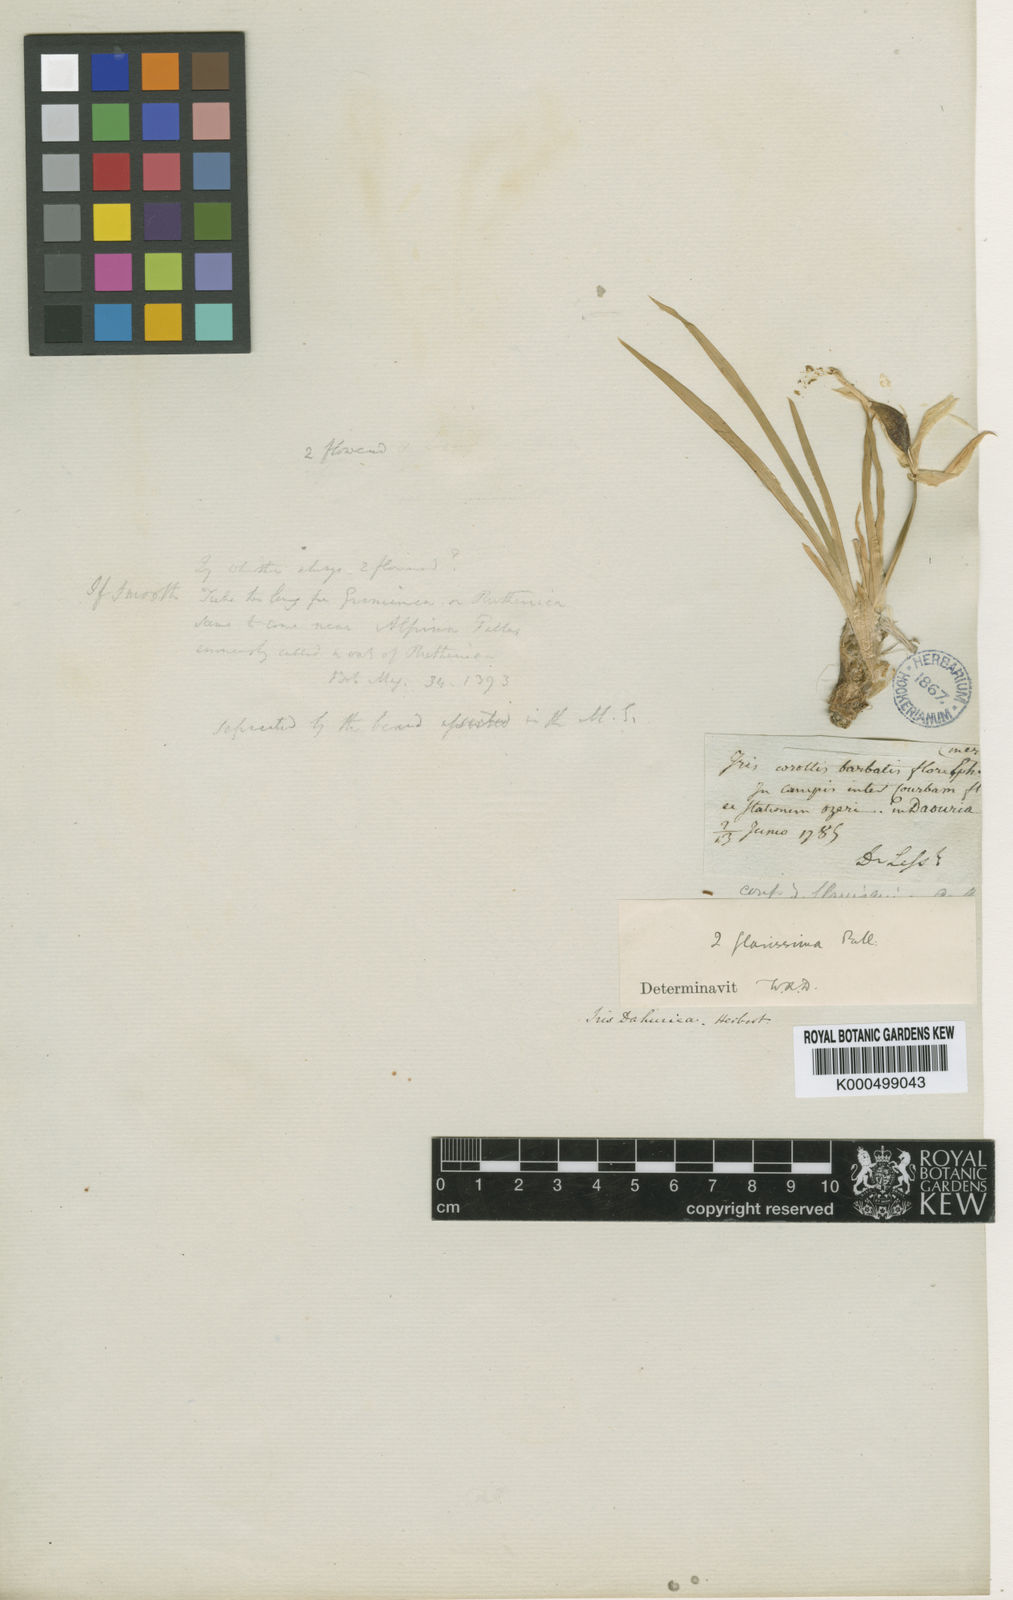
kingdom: Plantae
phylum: Tracheophyta
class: Liliopsida
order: Asparagales
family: Iridaceae
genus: Iris
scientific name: Iris humilis
